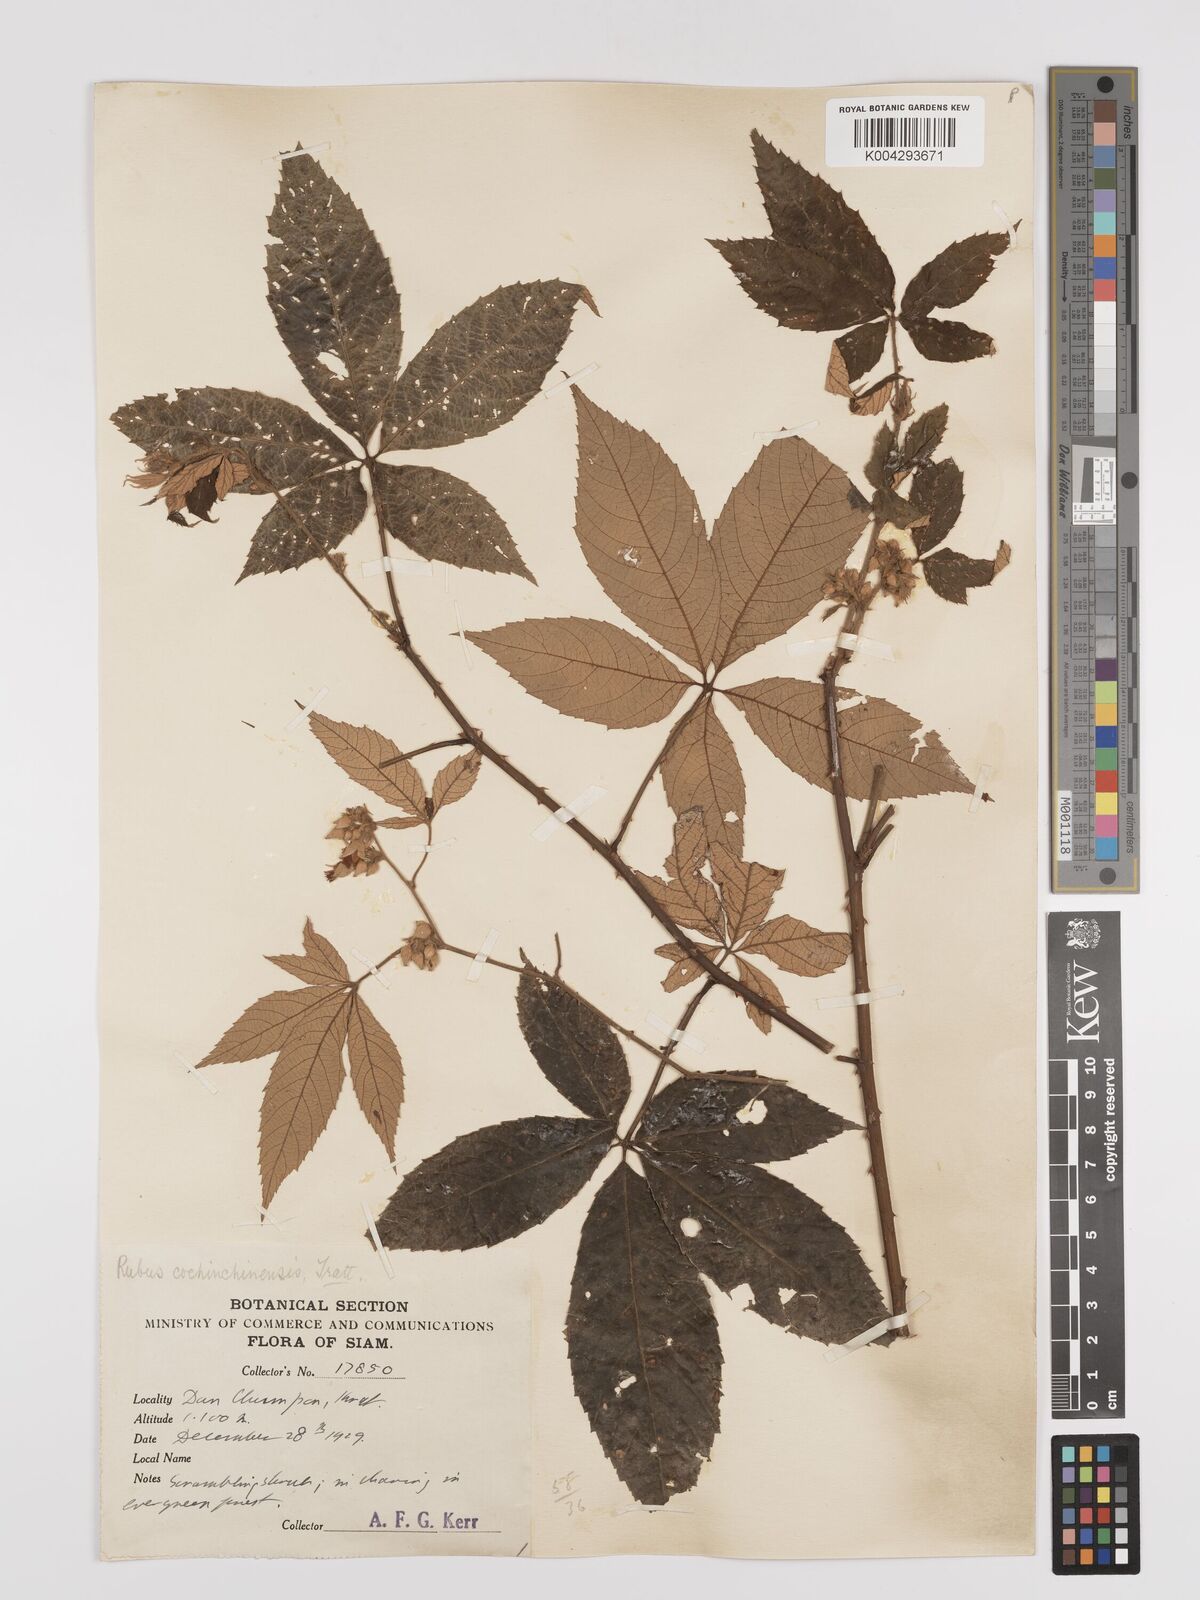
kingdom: Plantae
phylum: Tracheophyta
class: Magnoliopsida
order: Rosales
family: Rosaceae
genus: Rubus
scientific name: Rubus cochinchinensis
